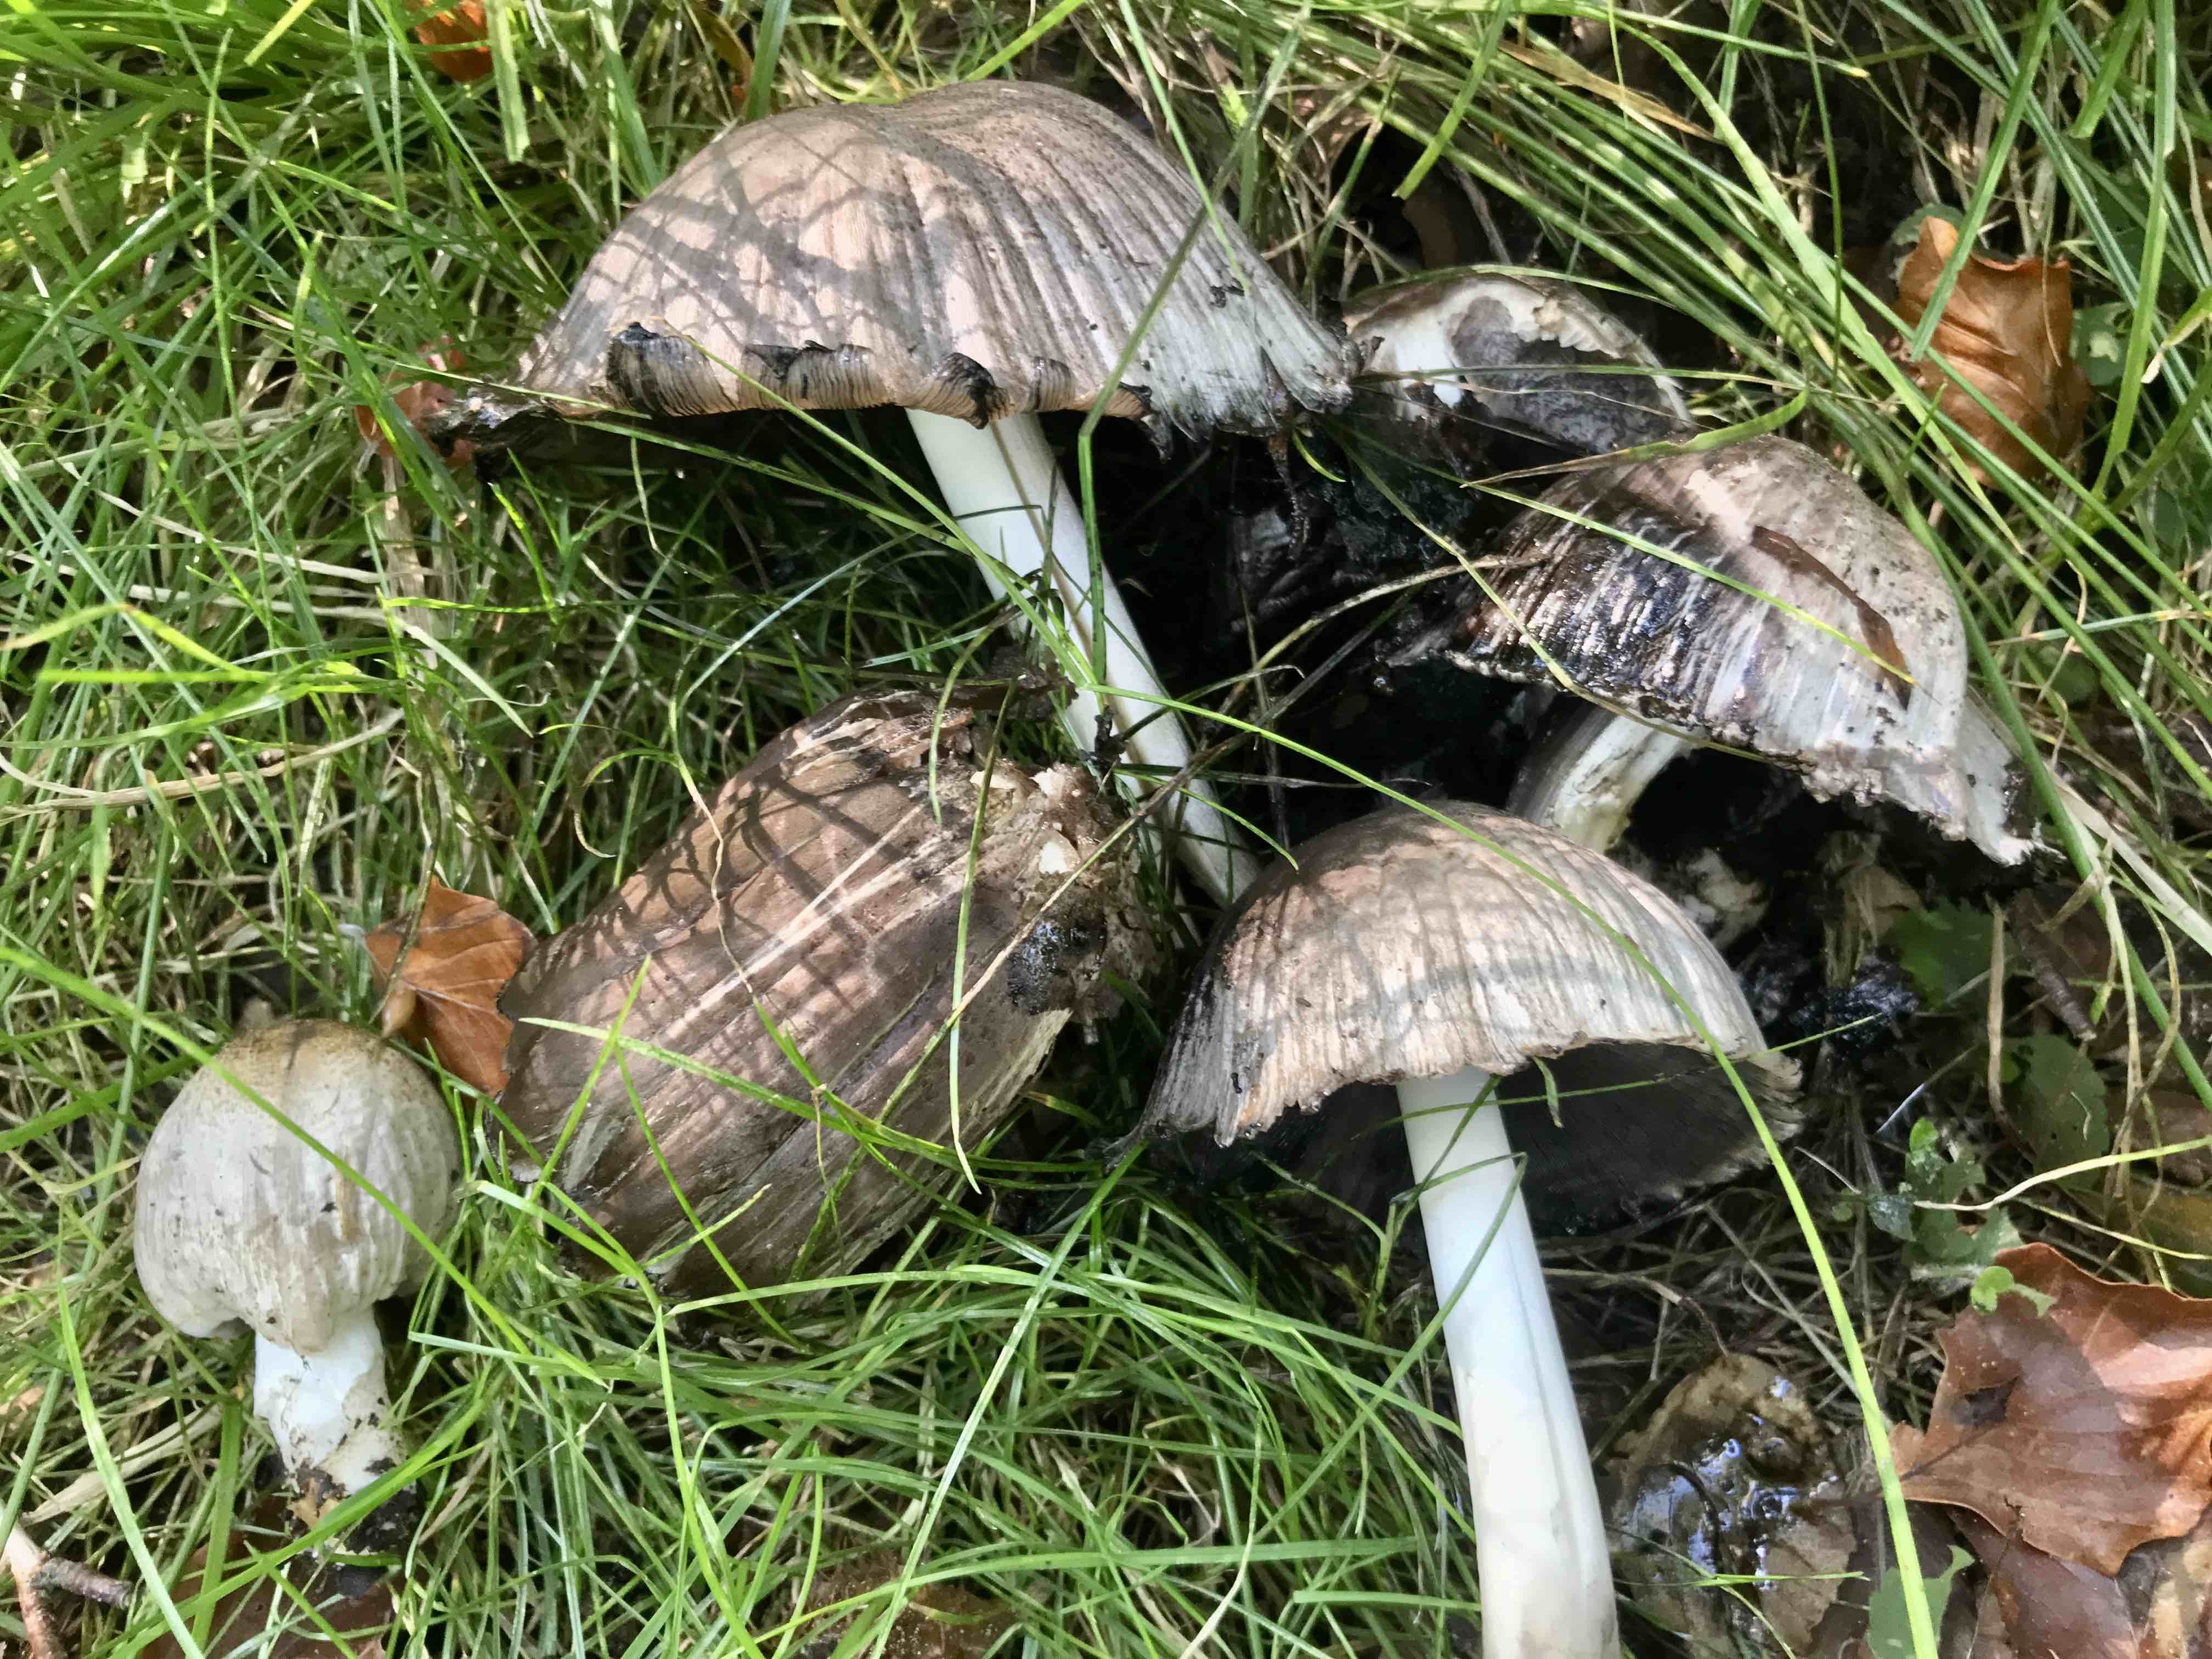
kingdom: Fungi
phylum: Basidiomycota
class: Agaricomycetes
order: Agaricales
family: Psathyrellaceae
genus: Coprinopsis
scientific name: Coprinopsis atramentaria
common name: almindelig blækhat
